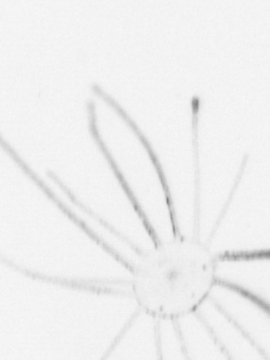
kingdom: Animalia
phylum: Cnidaria
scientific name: Cnidaria
